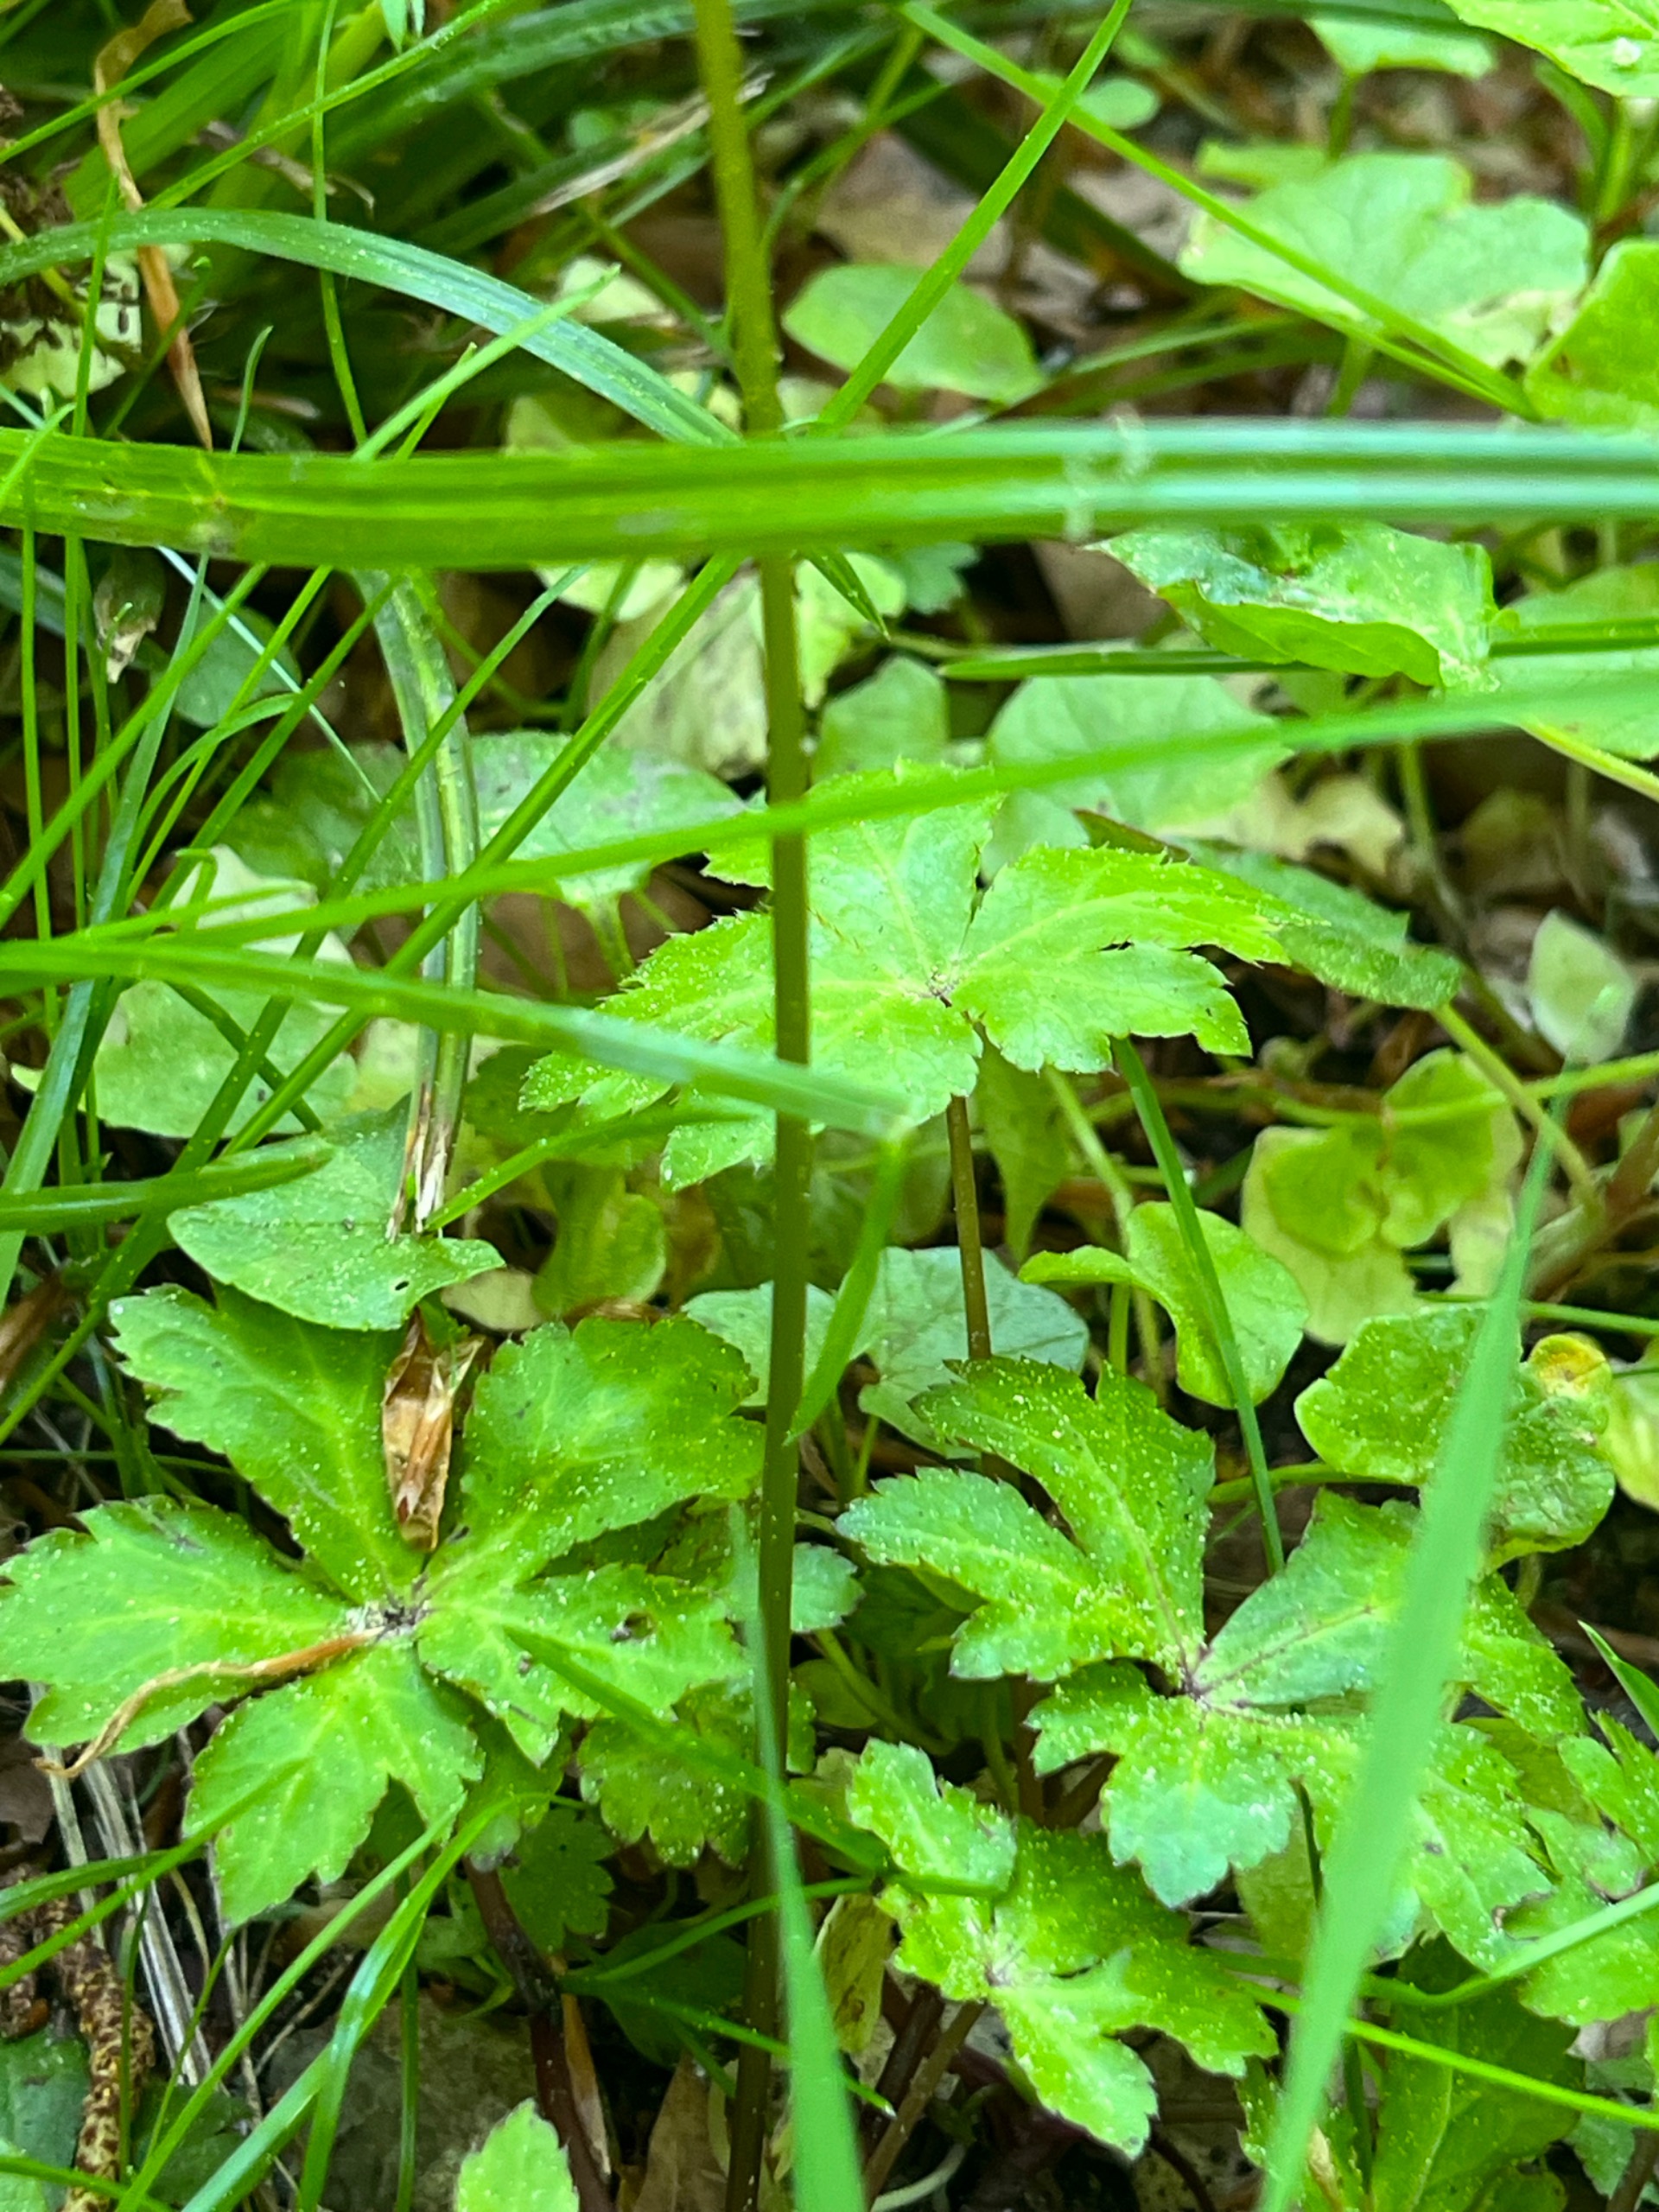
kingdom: Plantae
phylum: Tracheophyta
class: Magnoliopsida
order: Apiales
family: Apiaceae
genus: Sanicula
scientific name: Sanicula europaea
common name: Sanikel
